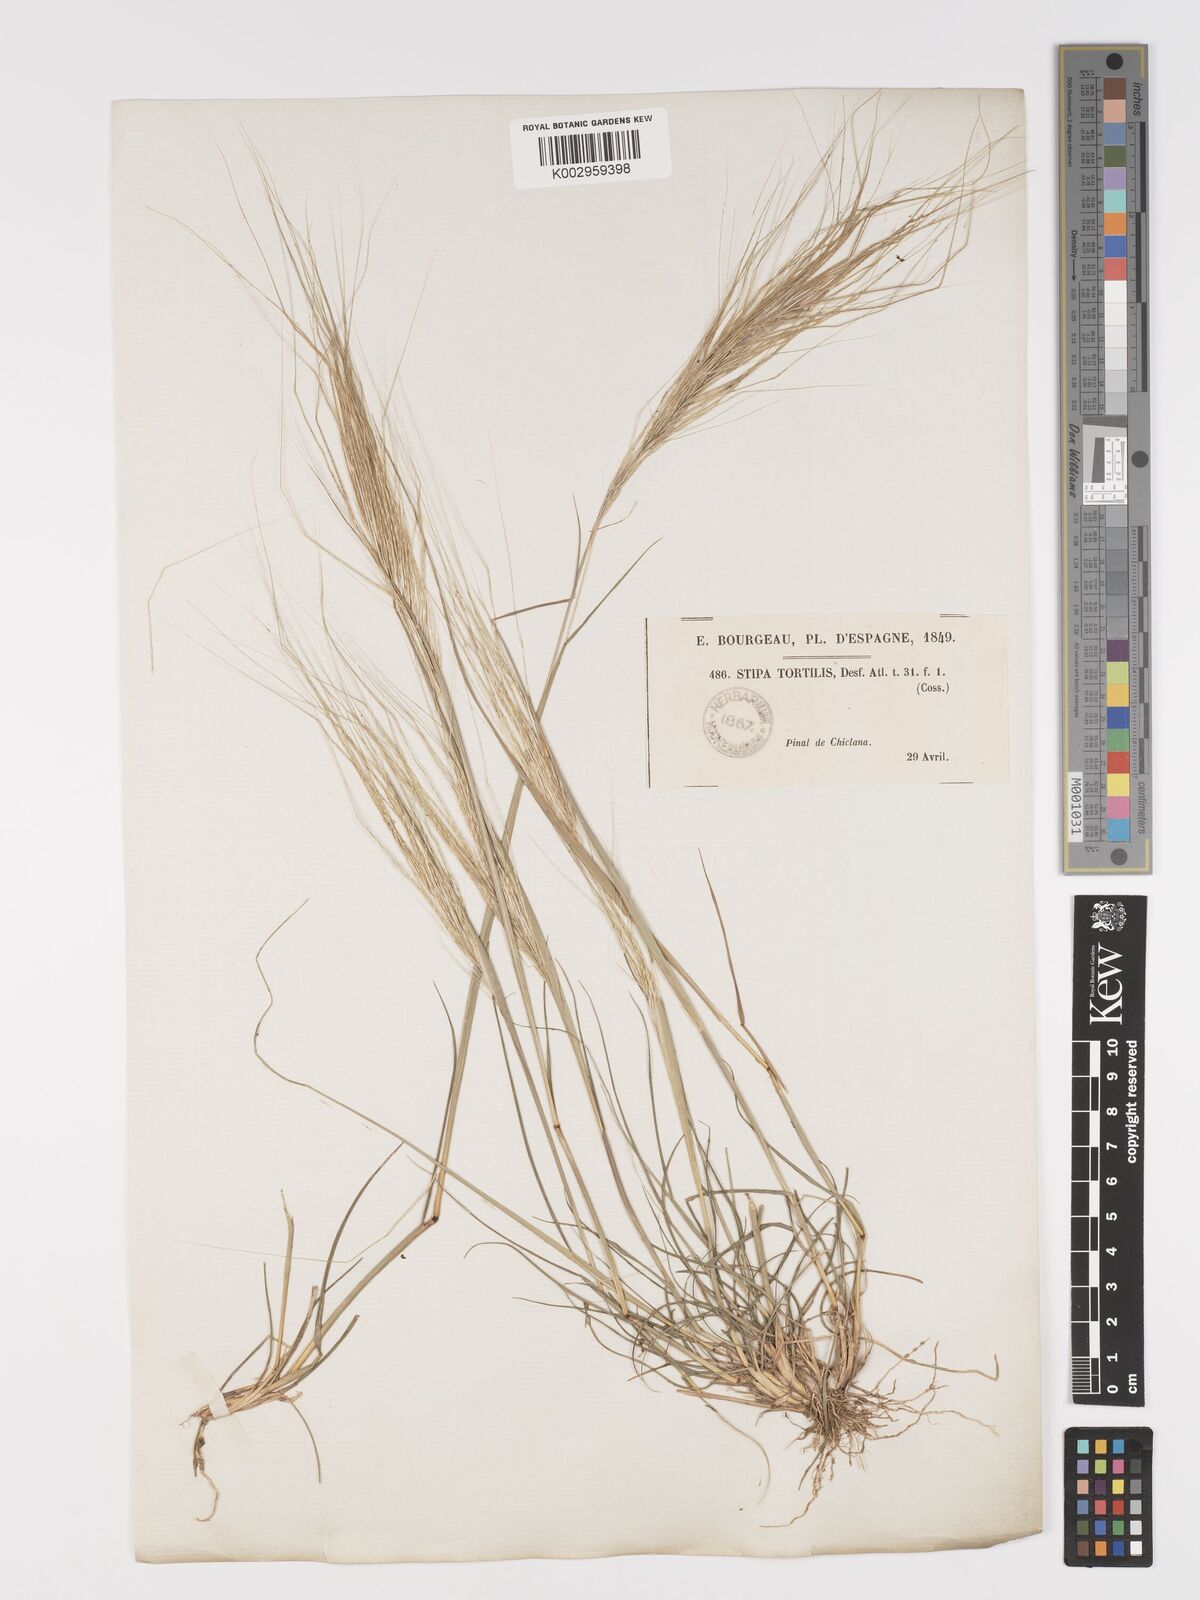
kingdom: Plantae
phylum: Tracheophyta
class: Liliopsida
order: Poales
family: Poaceae
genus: Stipellula
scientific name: Stipellula capensis
